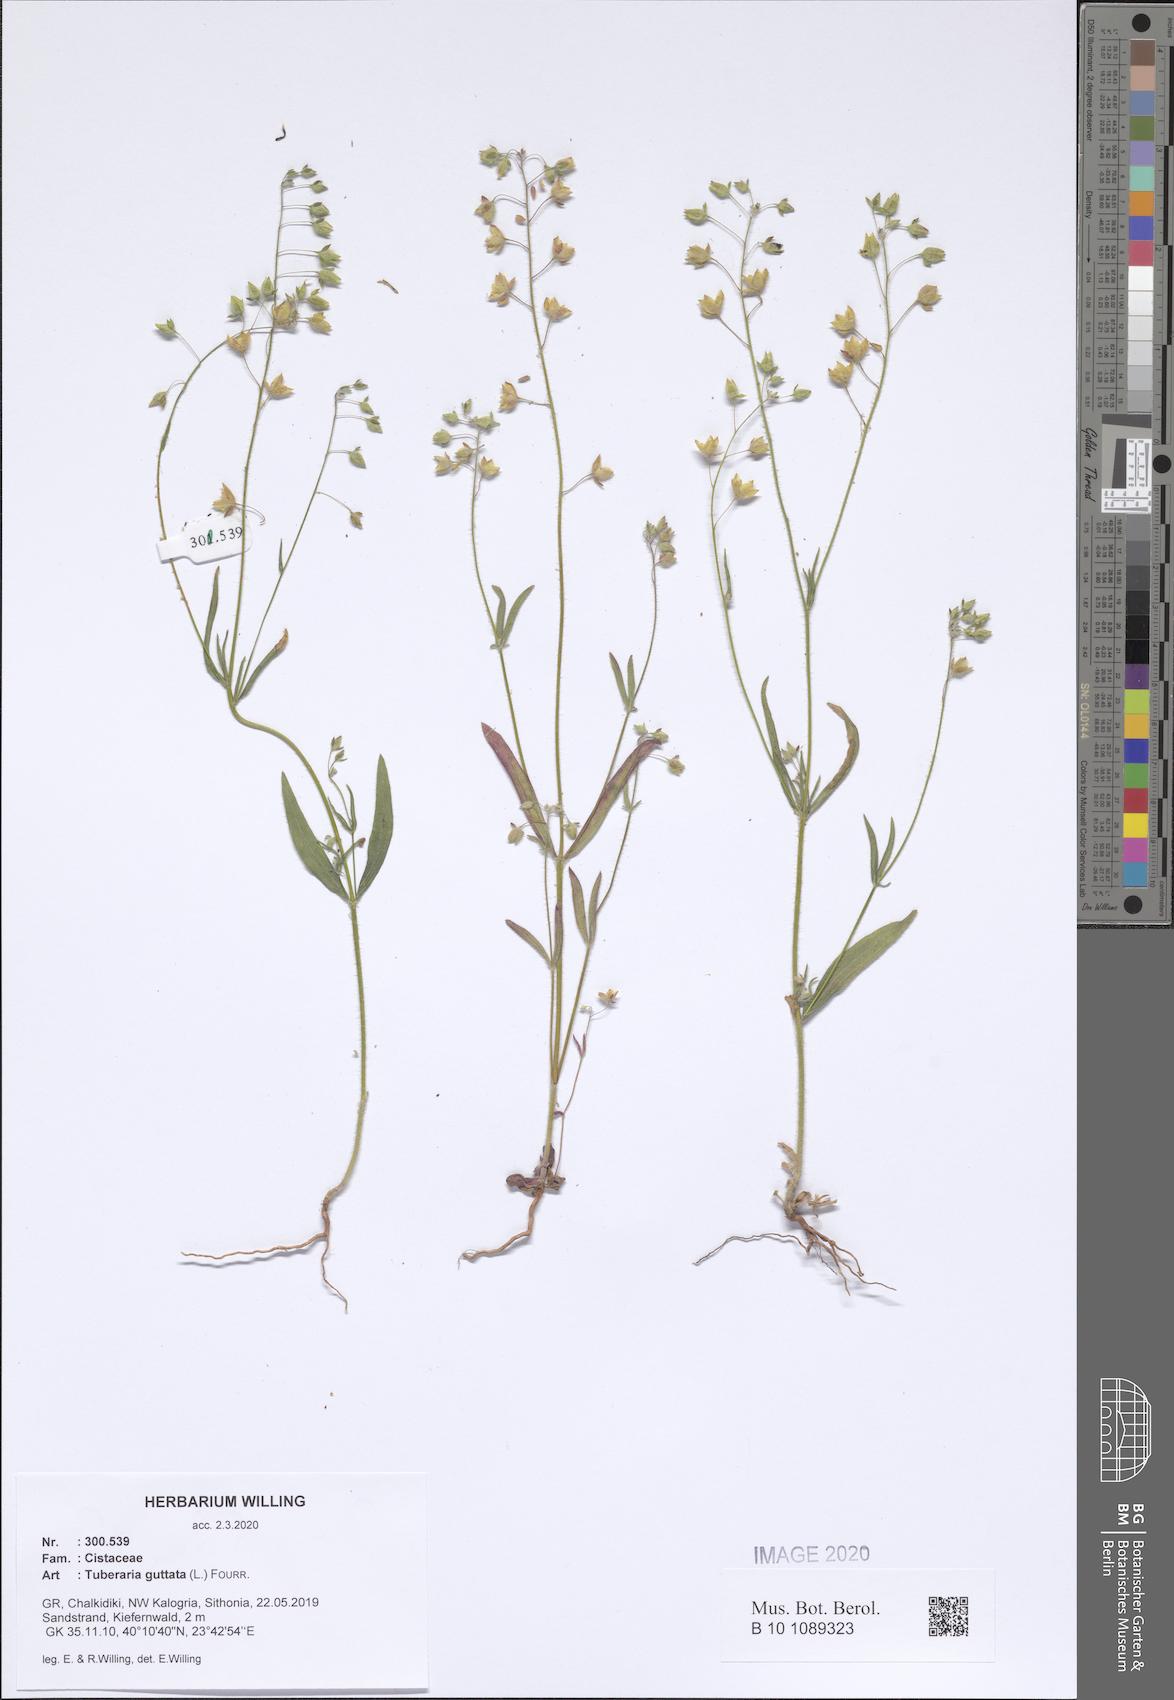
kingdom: Plantae
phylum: Tracheophyta
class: Magnoliopsida
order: Malvales
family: Cistaceae
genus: Tuberaria
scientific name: Tuberaria guttata
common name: Spotted rock-rose
